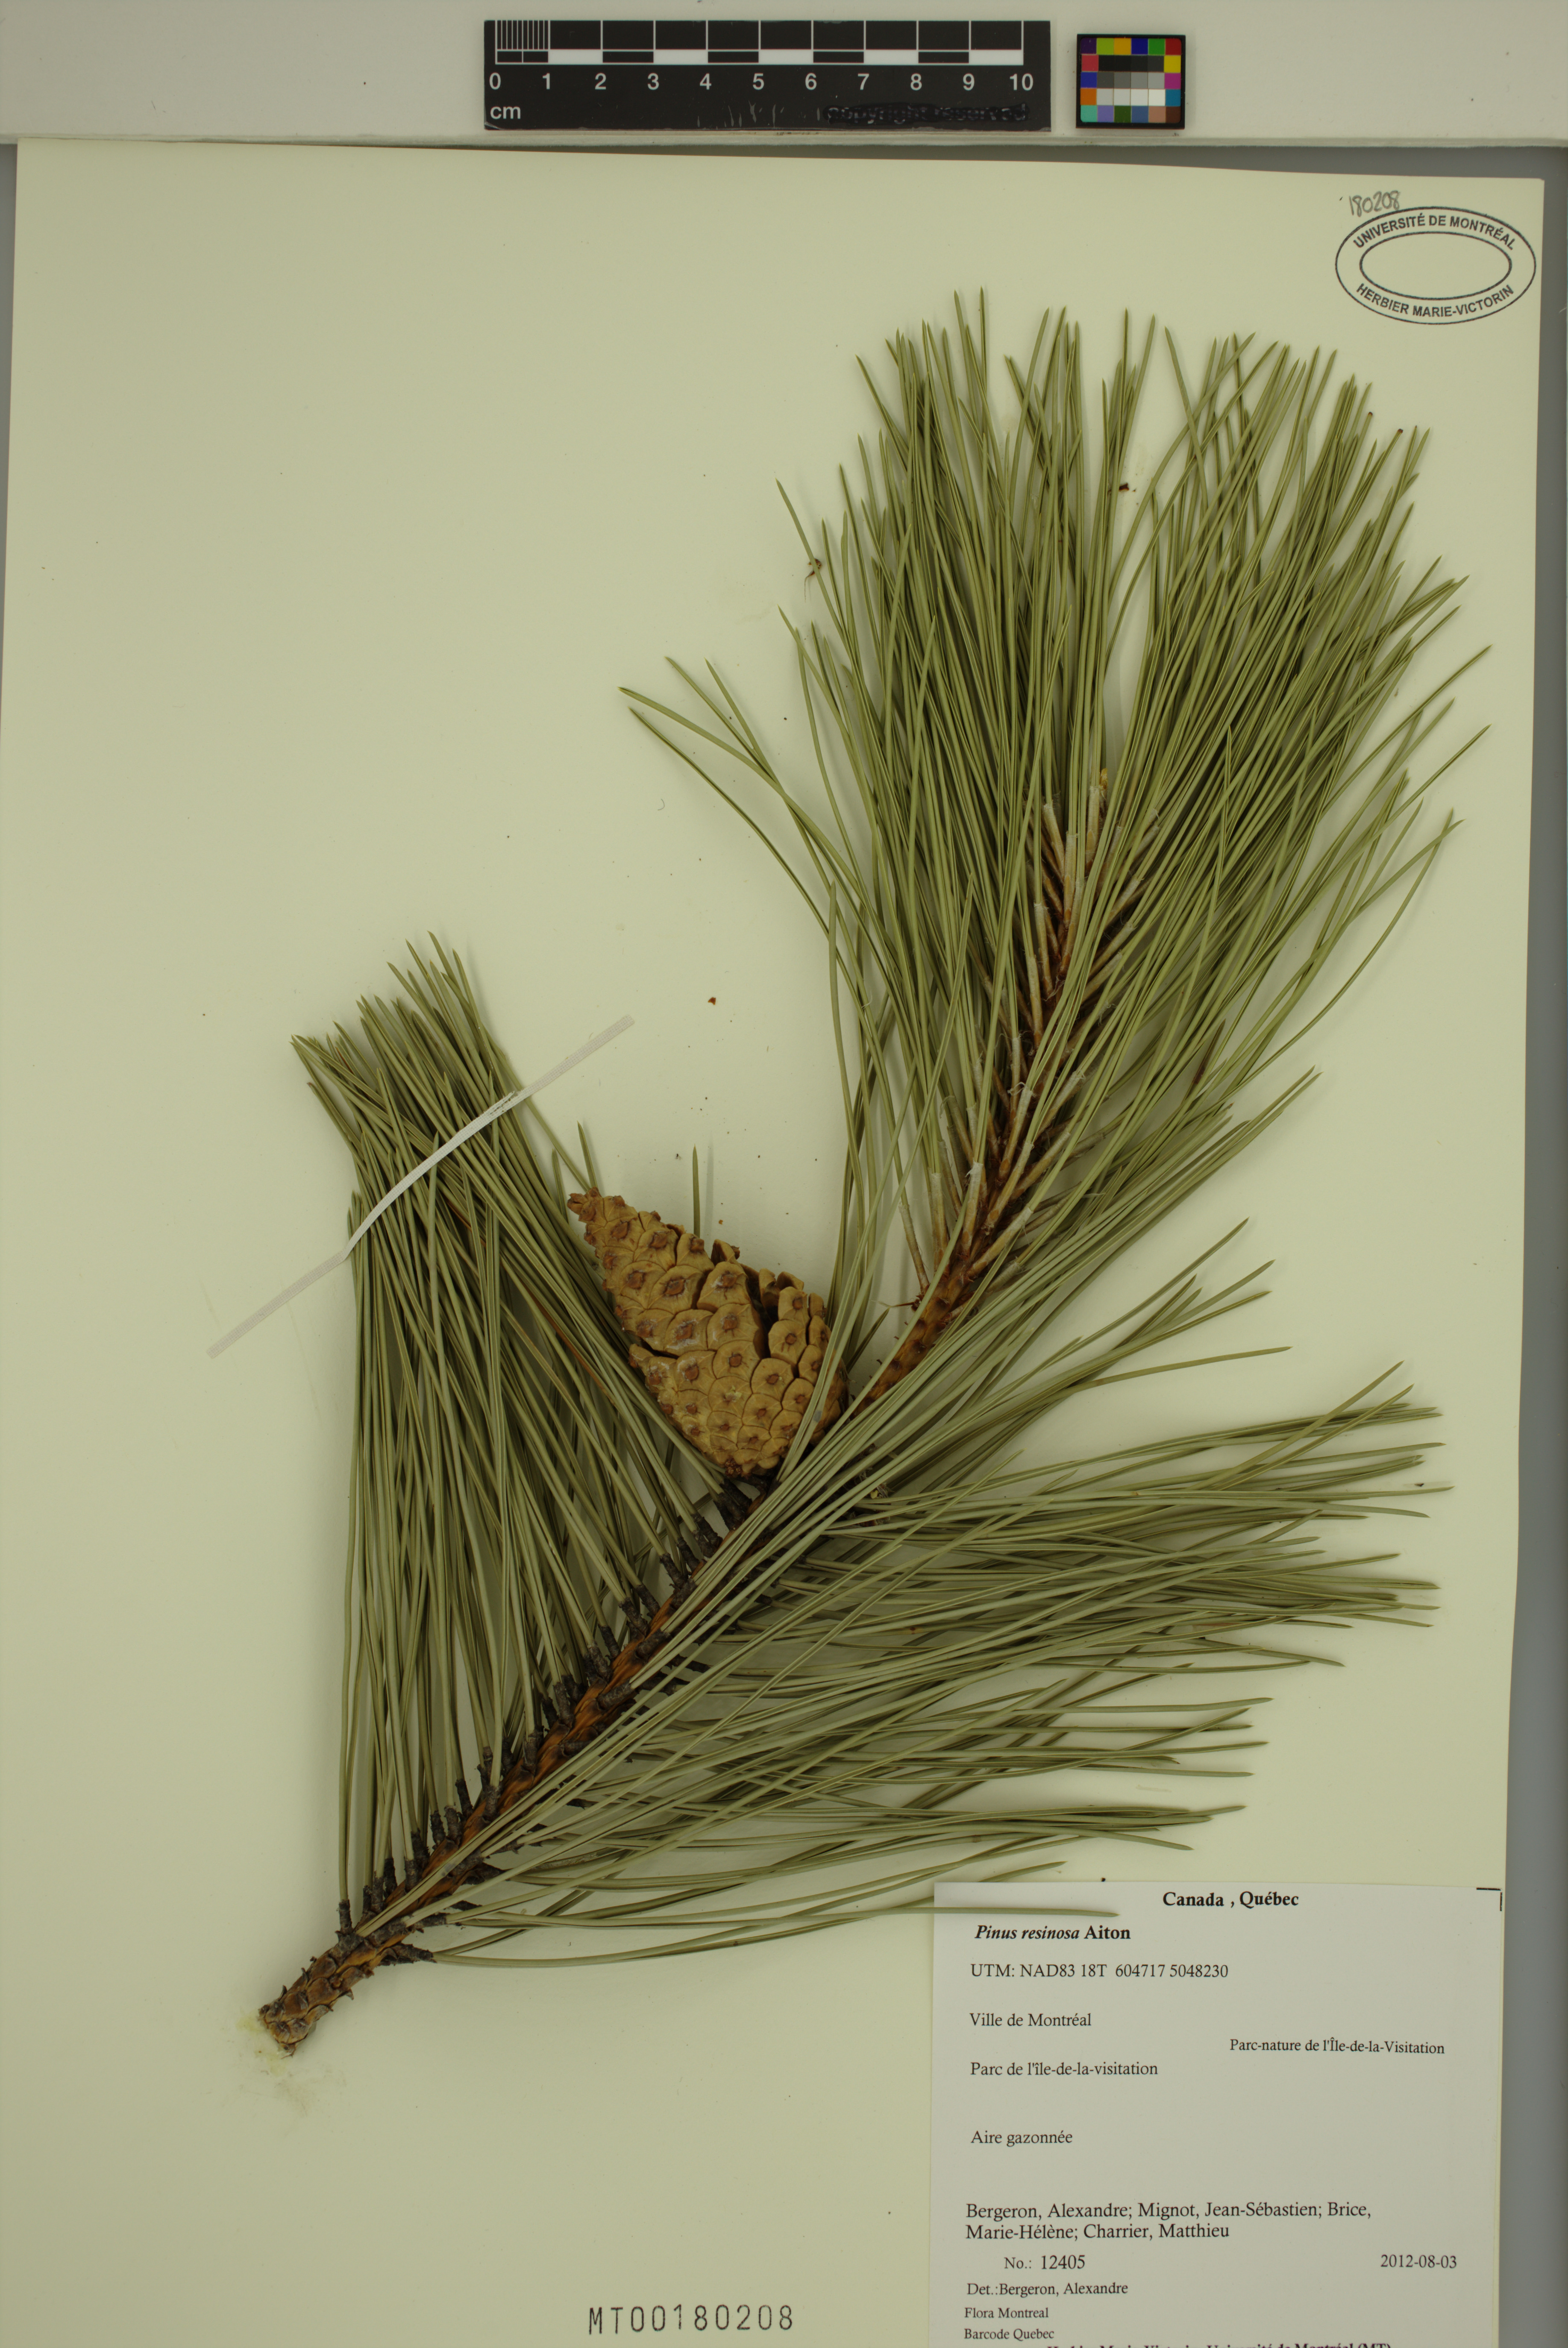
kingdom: Plantae
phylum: Tracheophyta
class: Pinopsida
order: Pinales
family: Pinaceae
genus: Pinus
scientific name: Pinus resinosa
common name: Norway pine
